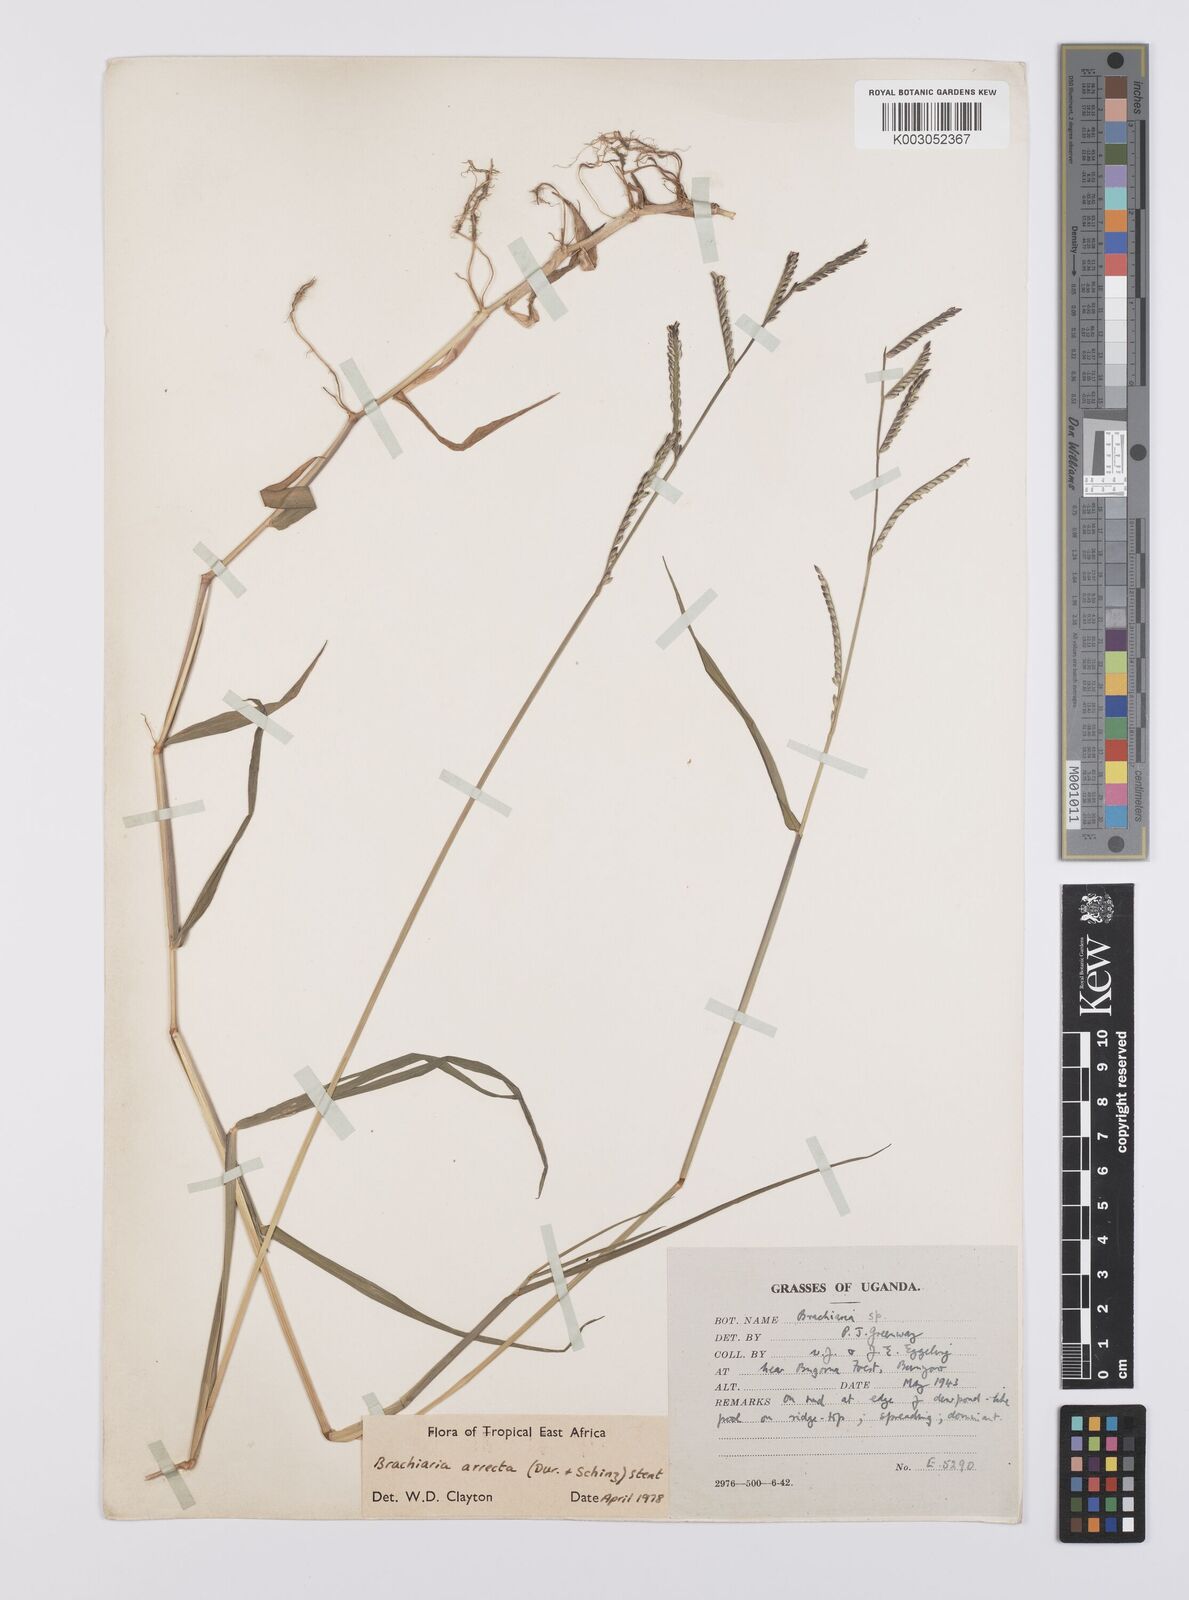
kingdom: Plantae
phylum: Tracheophyta
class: Liliopsida
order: Poales
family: Poaceae
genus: Urochloa
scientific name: Urochloa arrecta
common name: African signalgrass
